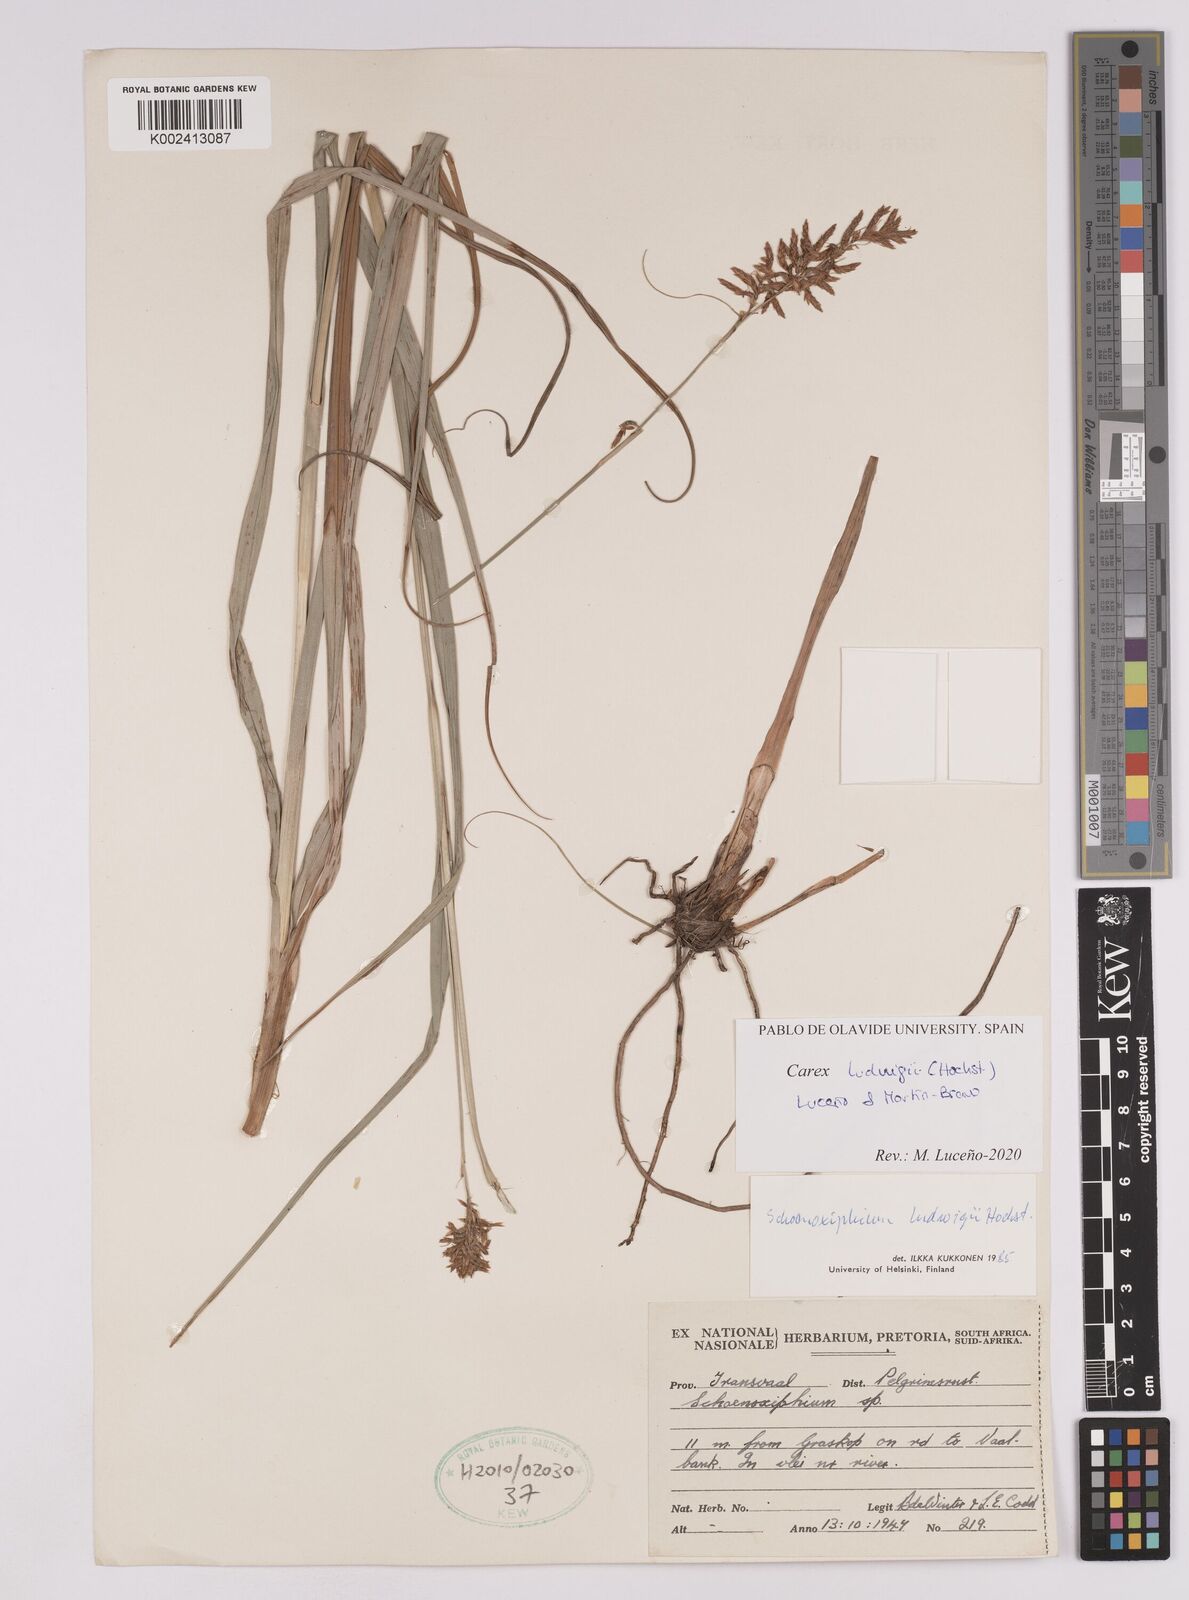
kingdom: Plantae
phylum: Tracheophyta
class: Liliopsida
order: Poales
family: Cyperaceae
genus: Carex
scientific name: Carex ludwigii
